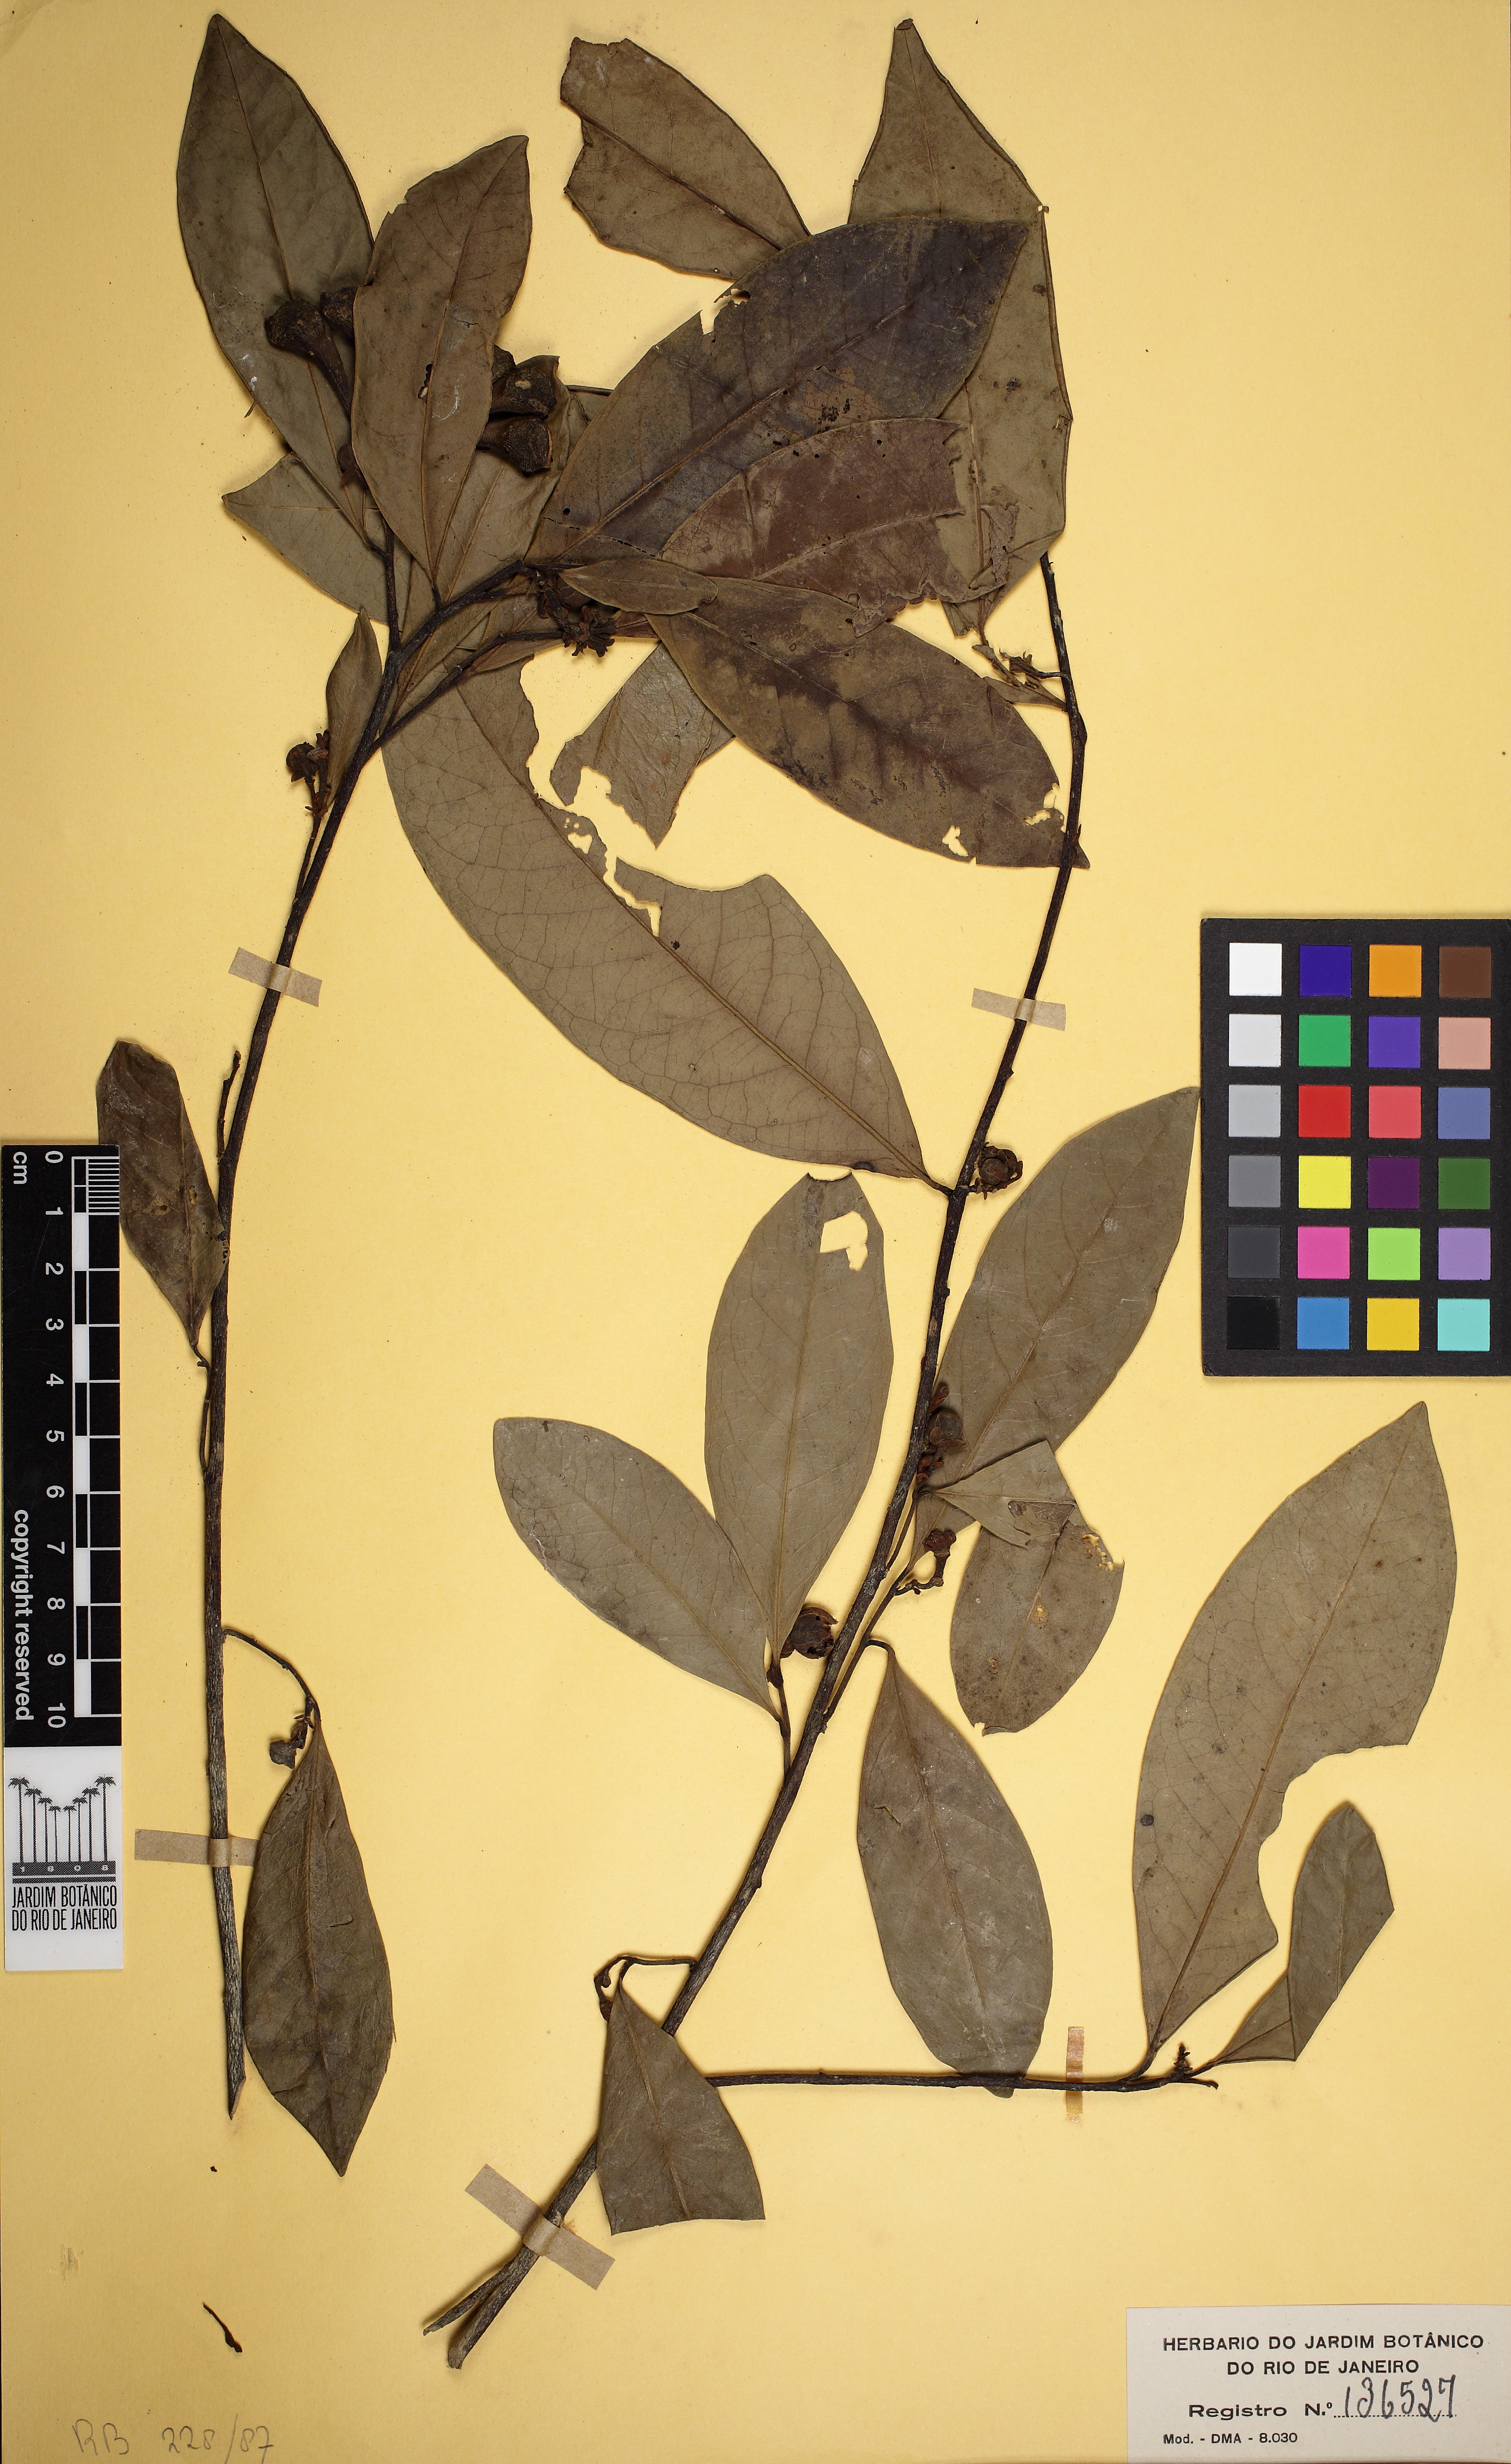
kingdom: Plantae
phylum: Tracheophyta
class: Magnoliopsida
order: Magnoliales
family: Annonaceae
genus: Anaxagorea
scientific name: Anaxagorea silvatica
